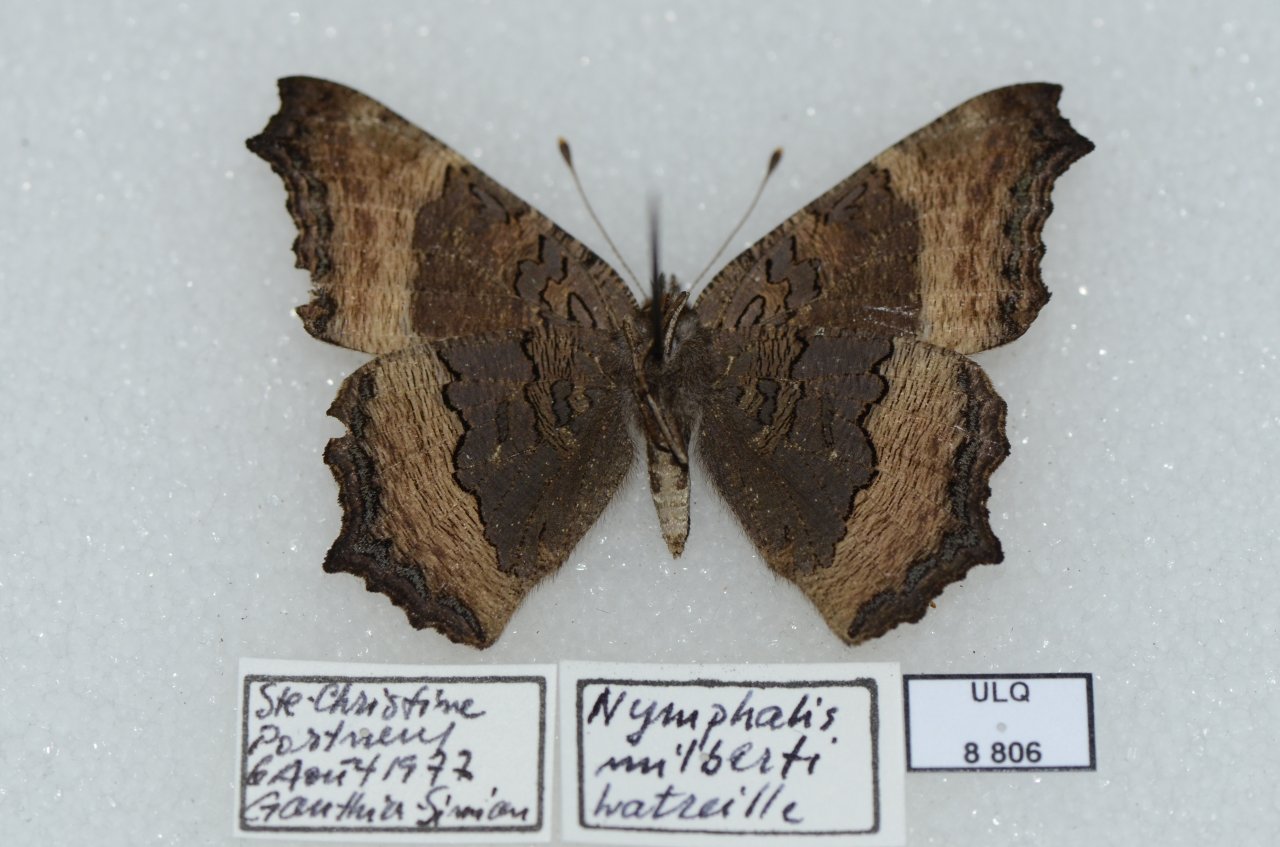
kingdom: Animalia
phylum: Arthropoda
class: Insecta
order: Lepidoptera
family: Nymphalidae
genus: Aglais
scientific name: Aglais milberti
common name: Milbert's Tortoiseshell
